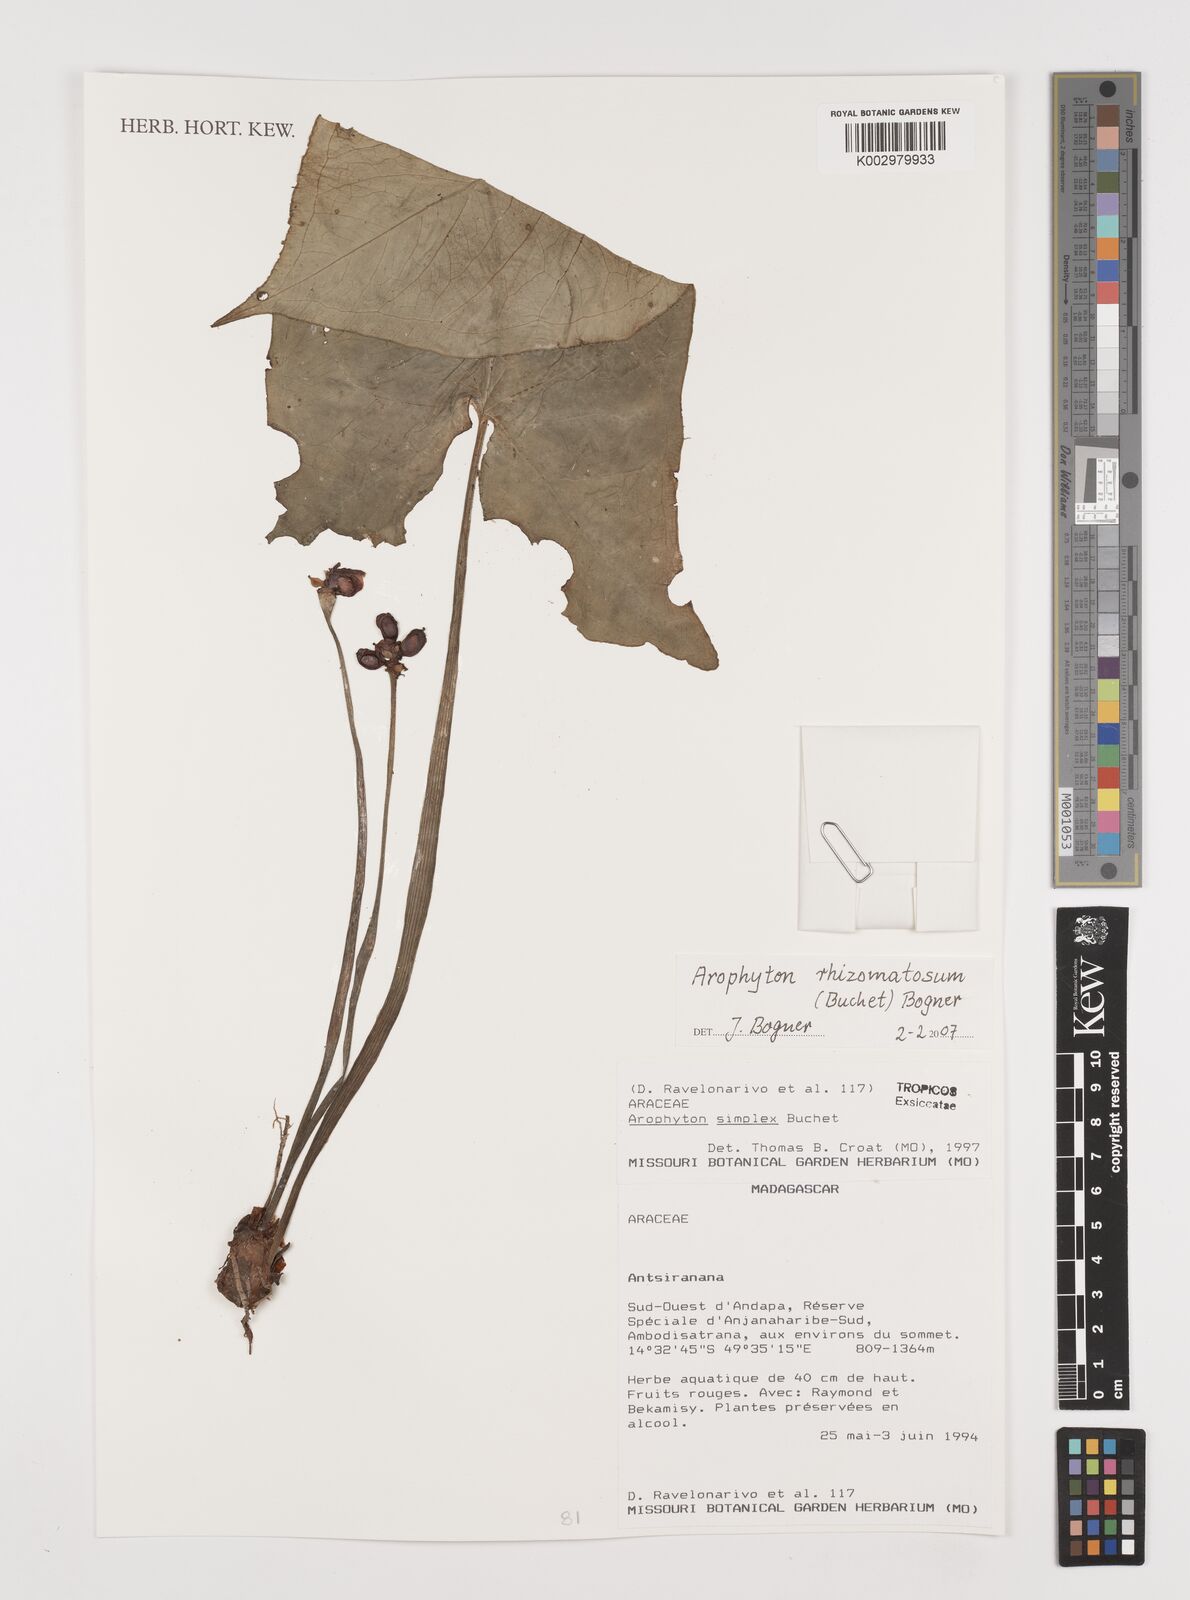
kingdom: Plantae
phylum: Tracheophyta
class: Liliopsida
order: Alismatales
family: Araceae
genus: Arophyton
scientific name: Arophyton rhizomatosum
